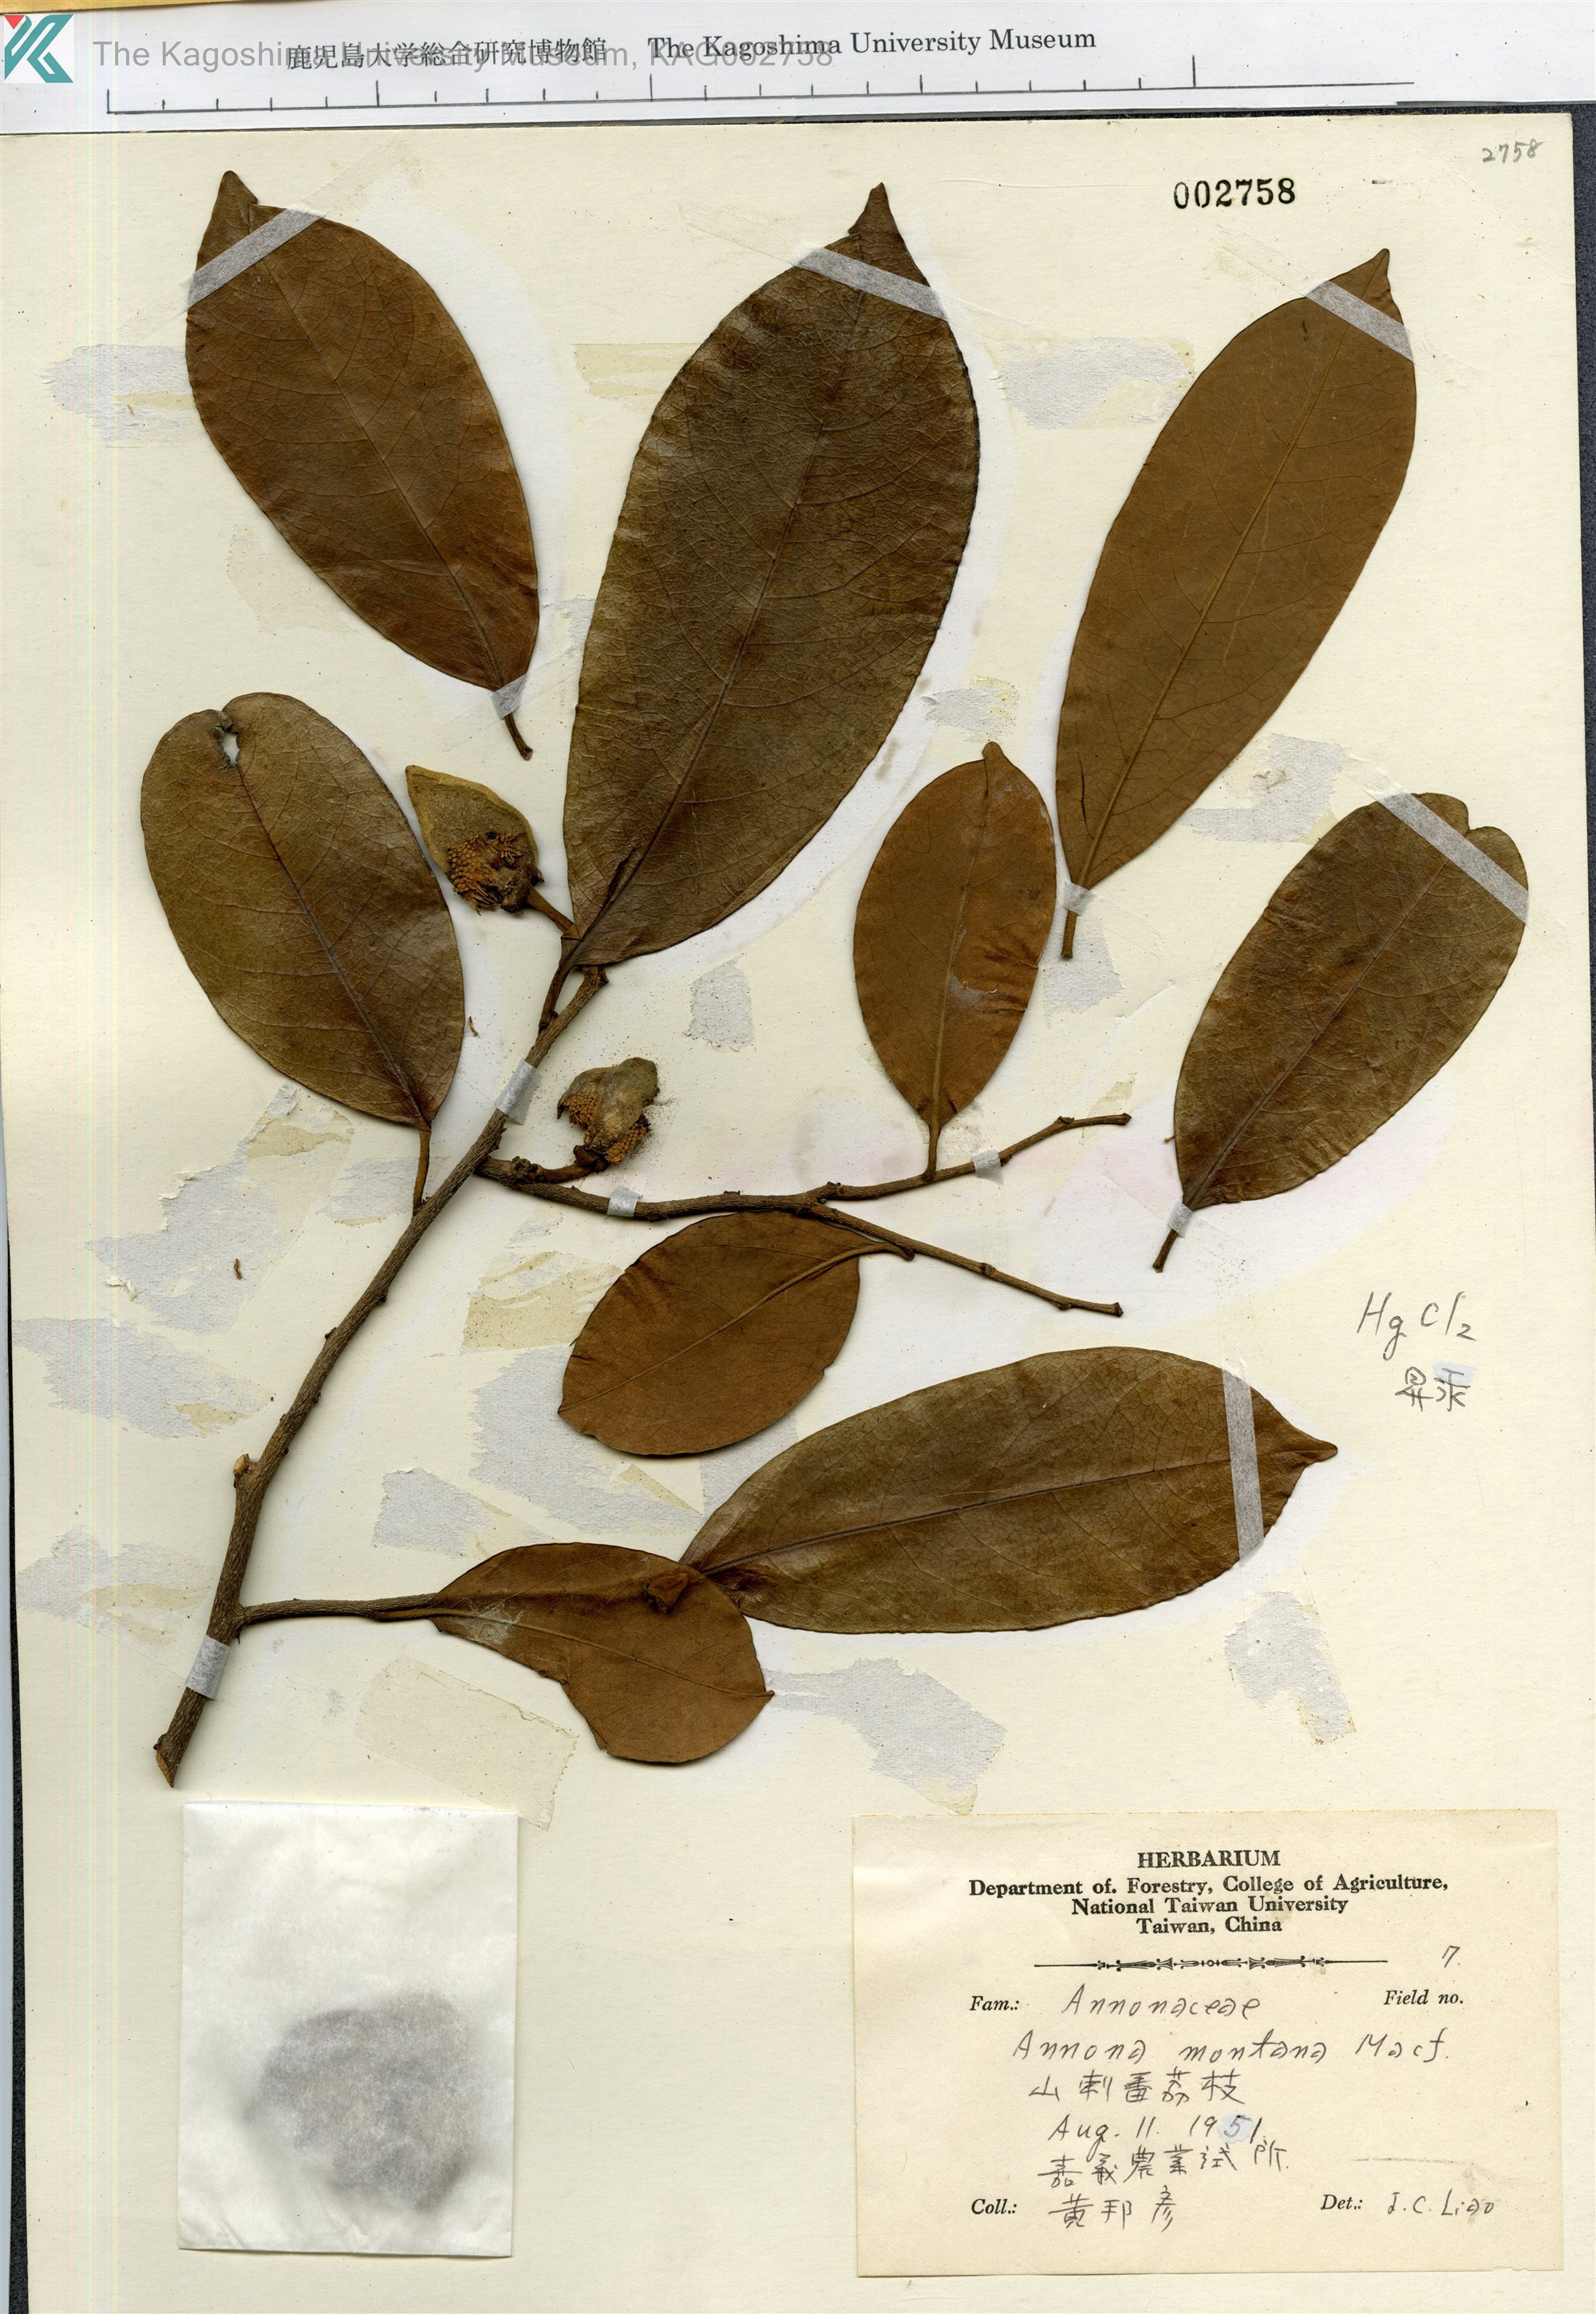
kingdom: Plantae
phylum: Tracheophyta
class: Magnoliopsida
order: Magnoliales
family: Annonaceae
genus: Annona
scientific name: Annona montana
